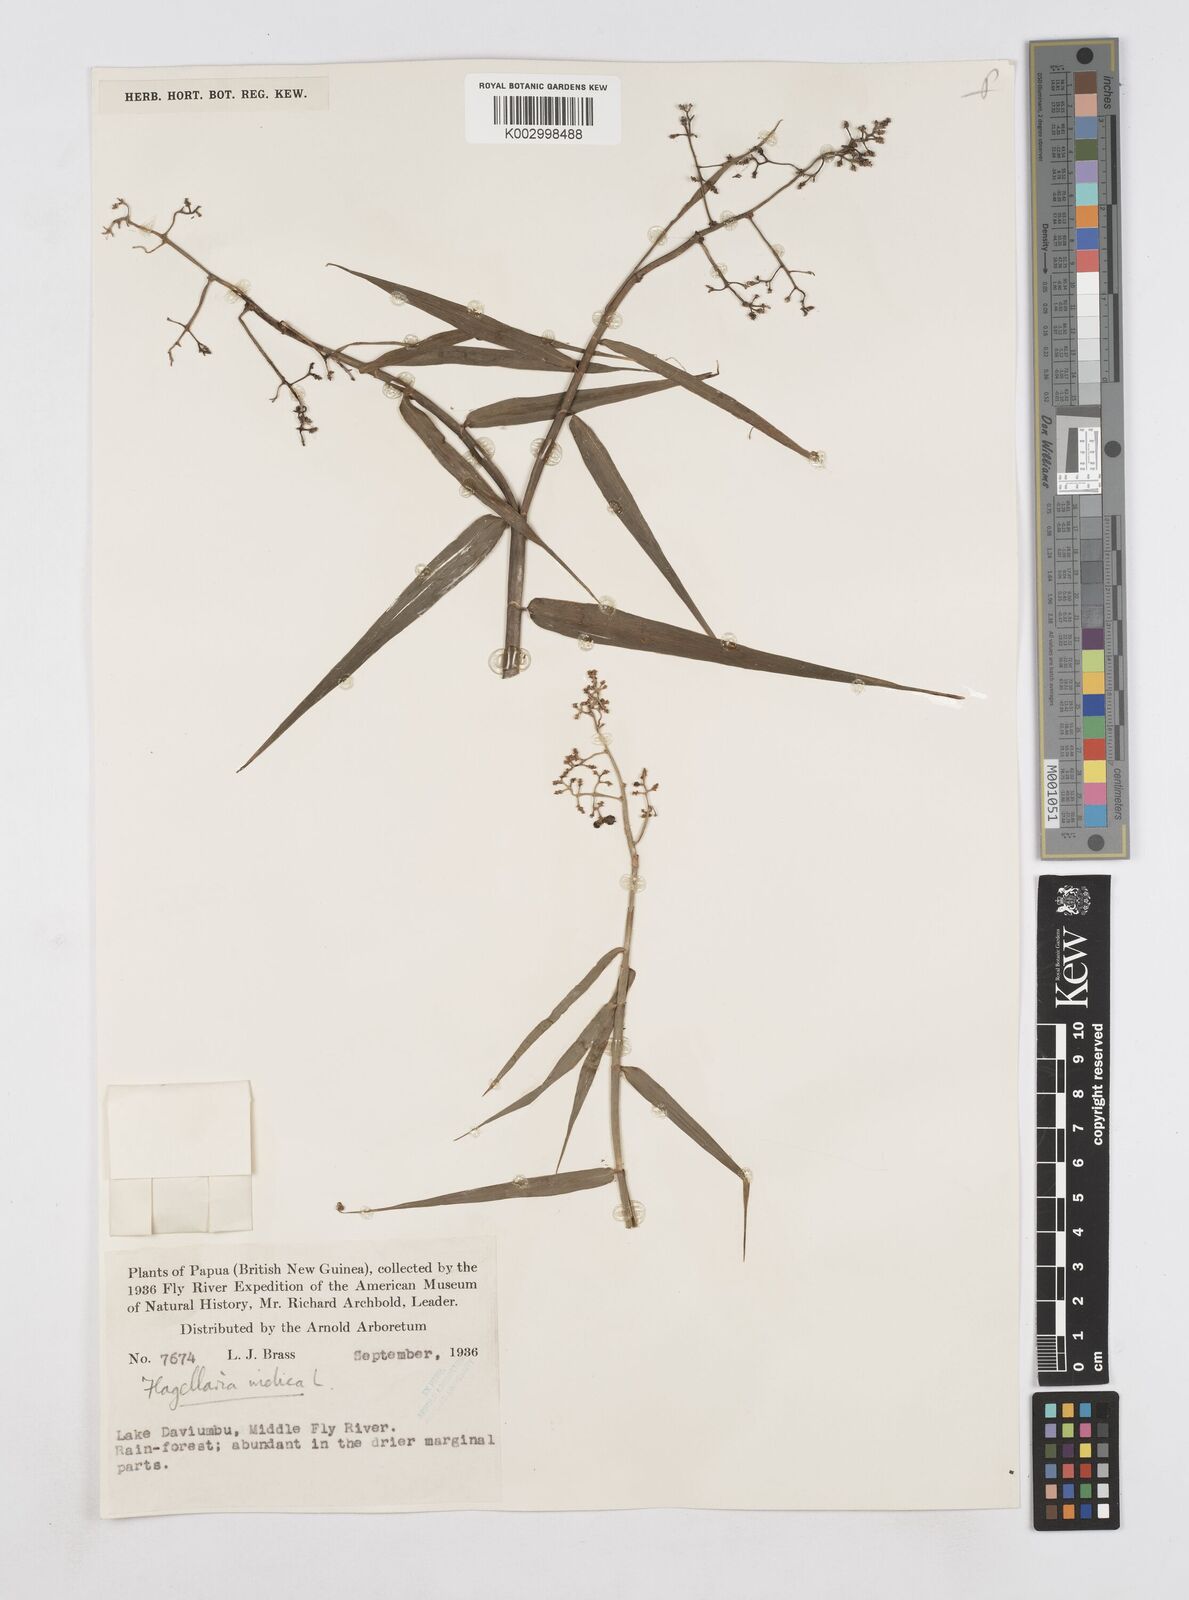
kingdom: Plantae
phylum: Tracheophyta
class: Liliopsida
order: Poales
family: Flagellariaceae
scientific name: Flagellariaceae
